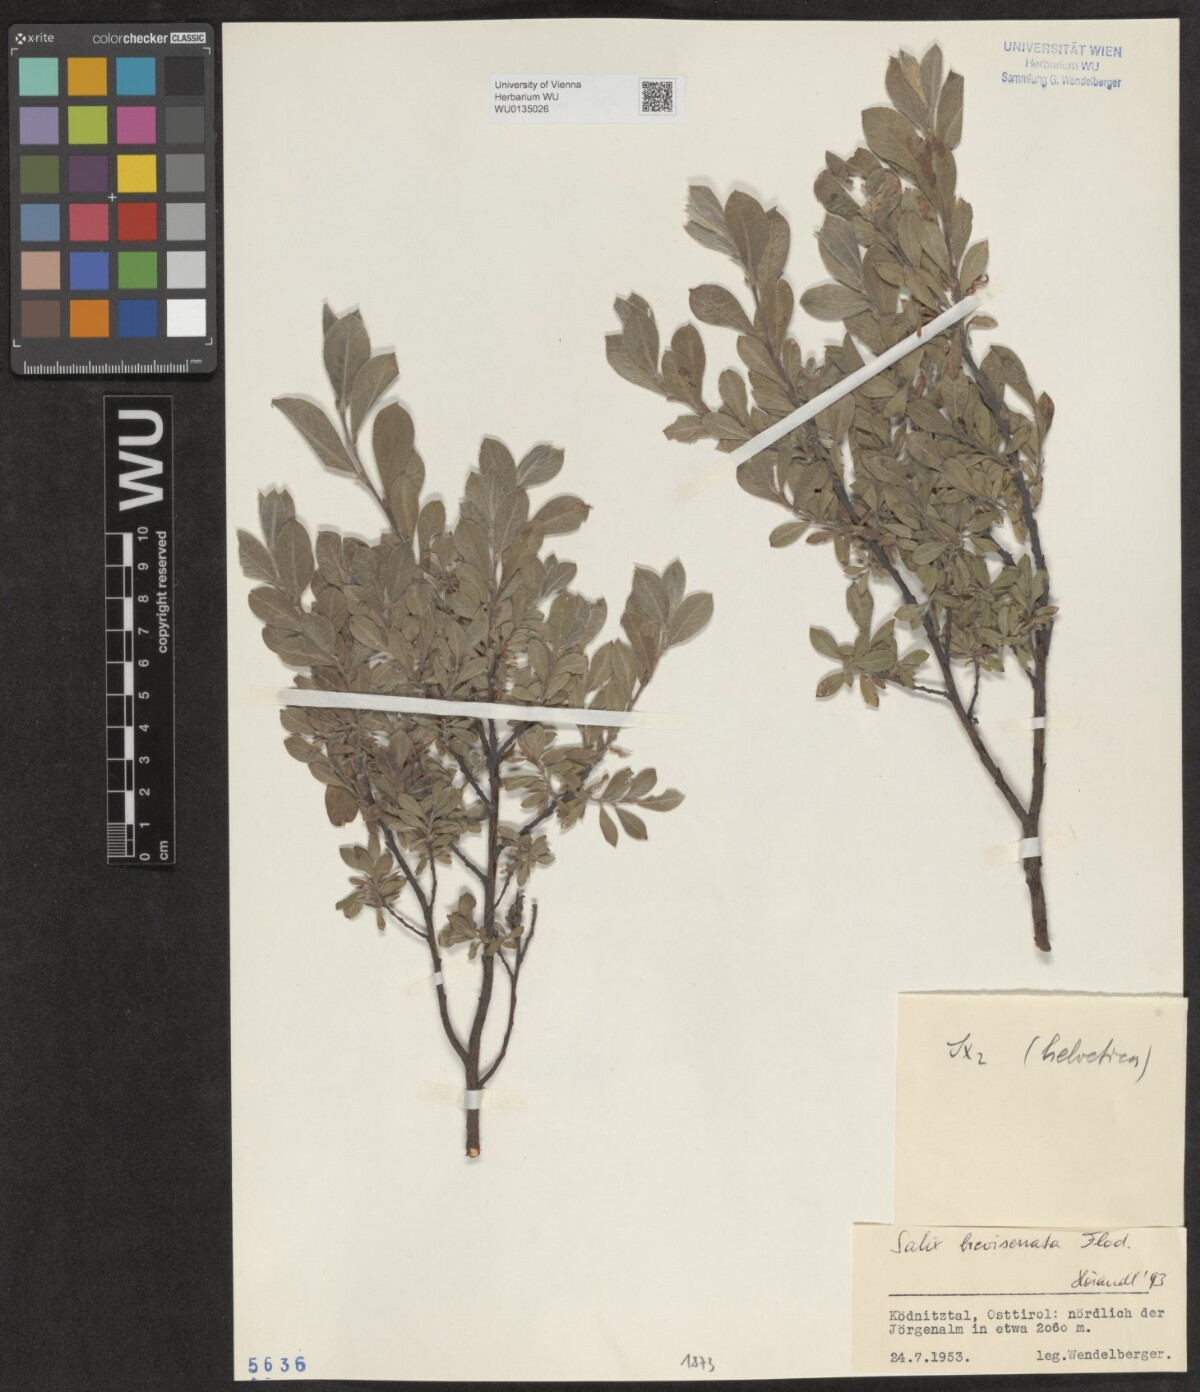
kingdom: Plantae
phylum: Tracheophyta
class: Magnoliopsida
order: Malpighiales
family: Salicaceae
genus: Salix
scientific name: Salix breviserrata
